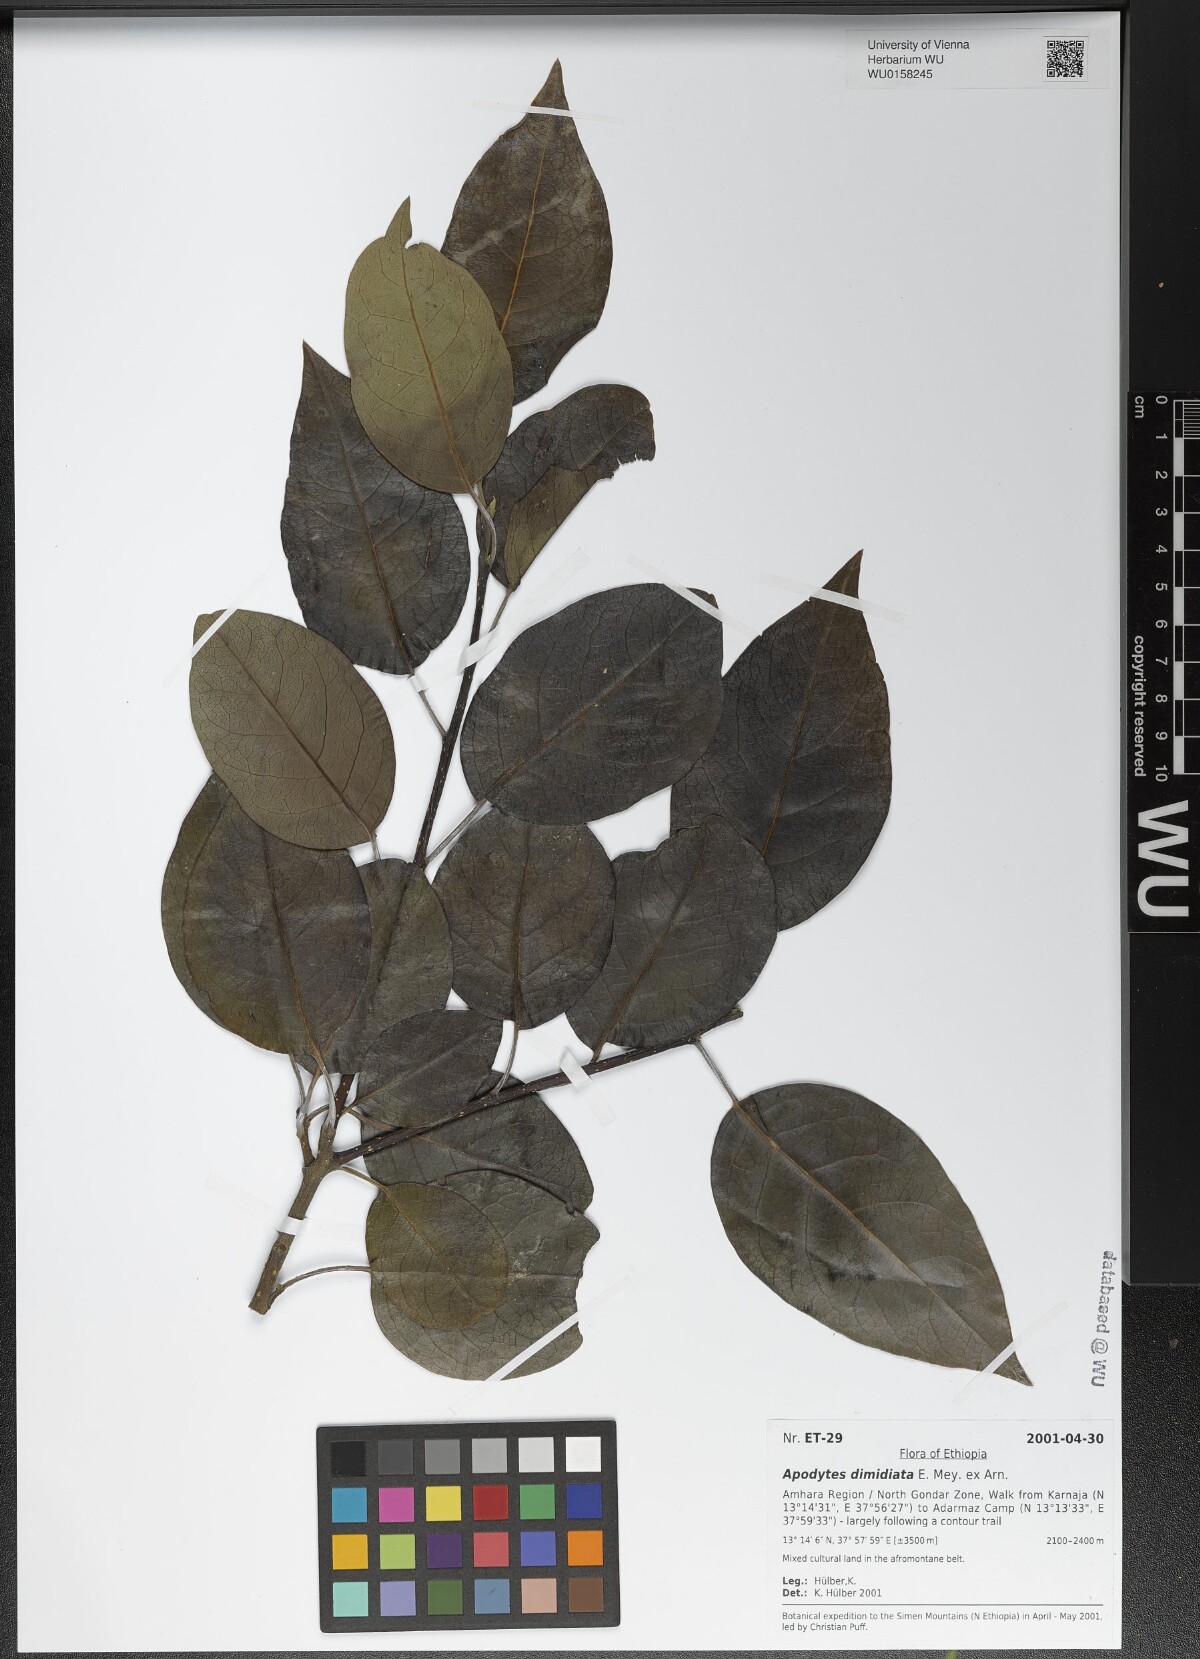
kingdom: Plantae
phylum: Tracheophyta
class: Magnoliopsida
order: Metteniusales
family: Metteniusaceae
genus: Apodytes
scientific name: Apodytes dimidiata
